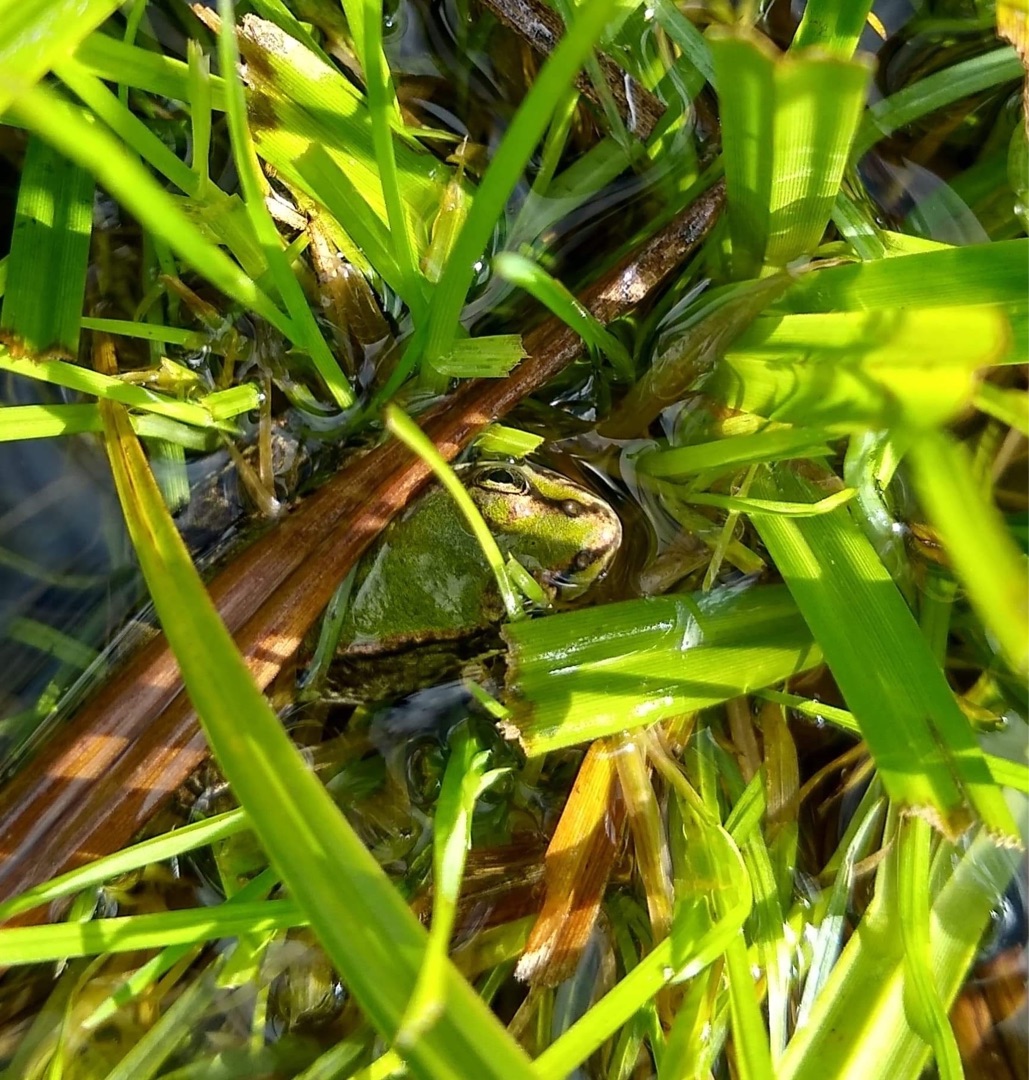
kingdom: Animalia
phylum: Chordata
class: Amphibia
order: Anura
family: Ranidae
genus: Pelophylax
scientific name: Pelophylax lessonae
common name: Grøn frø
